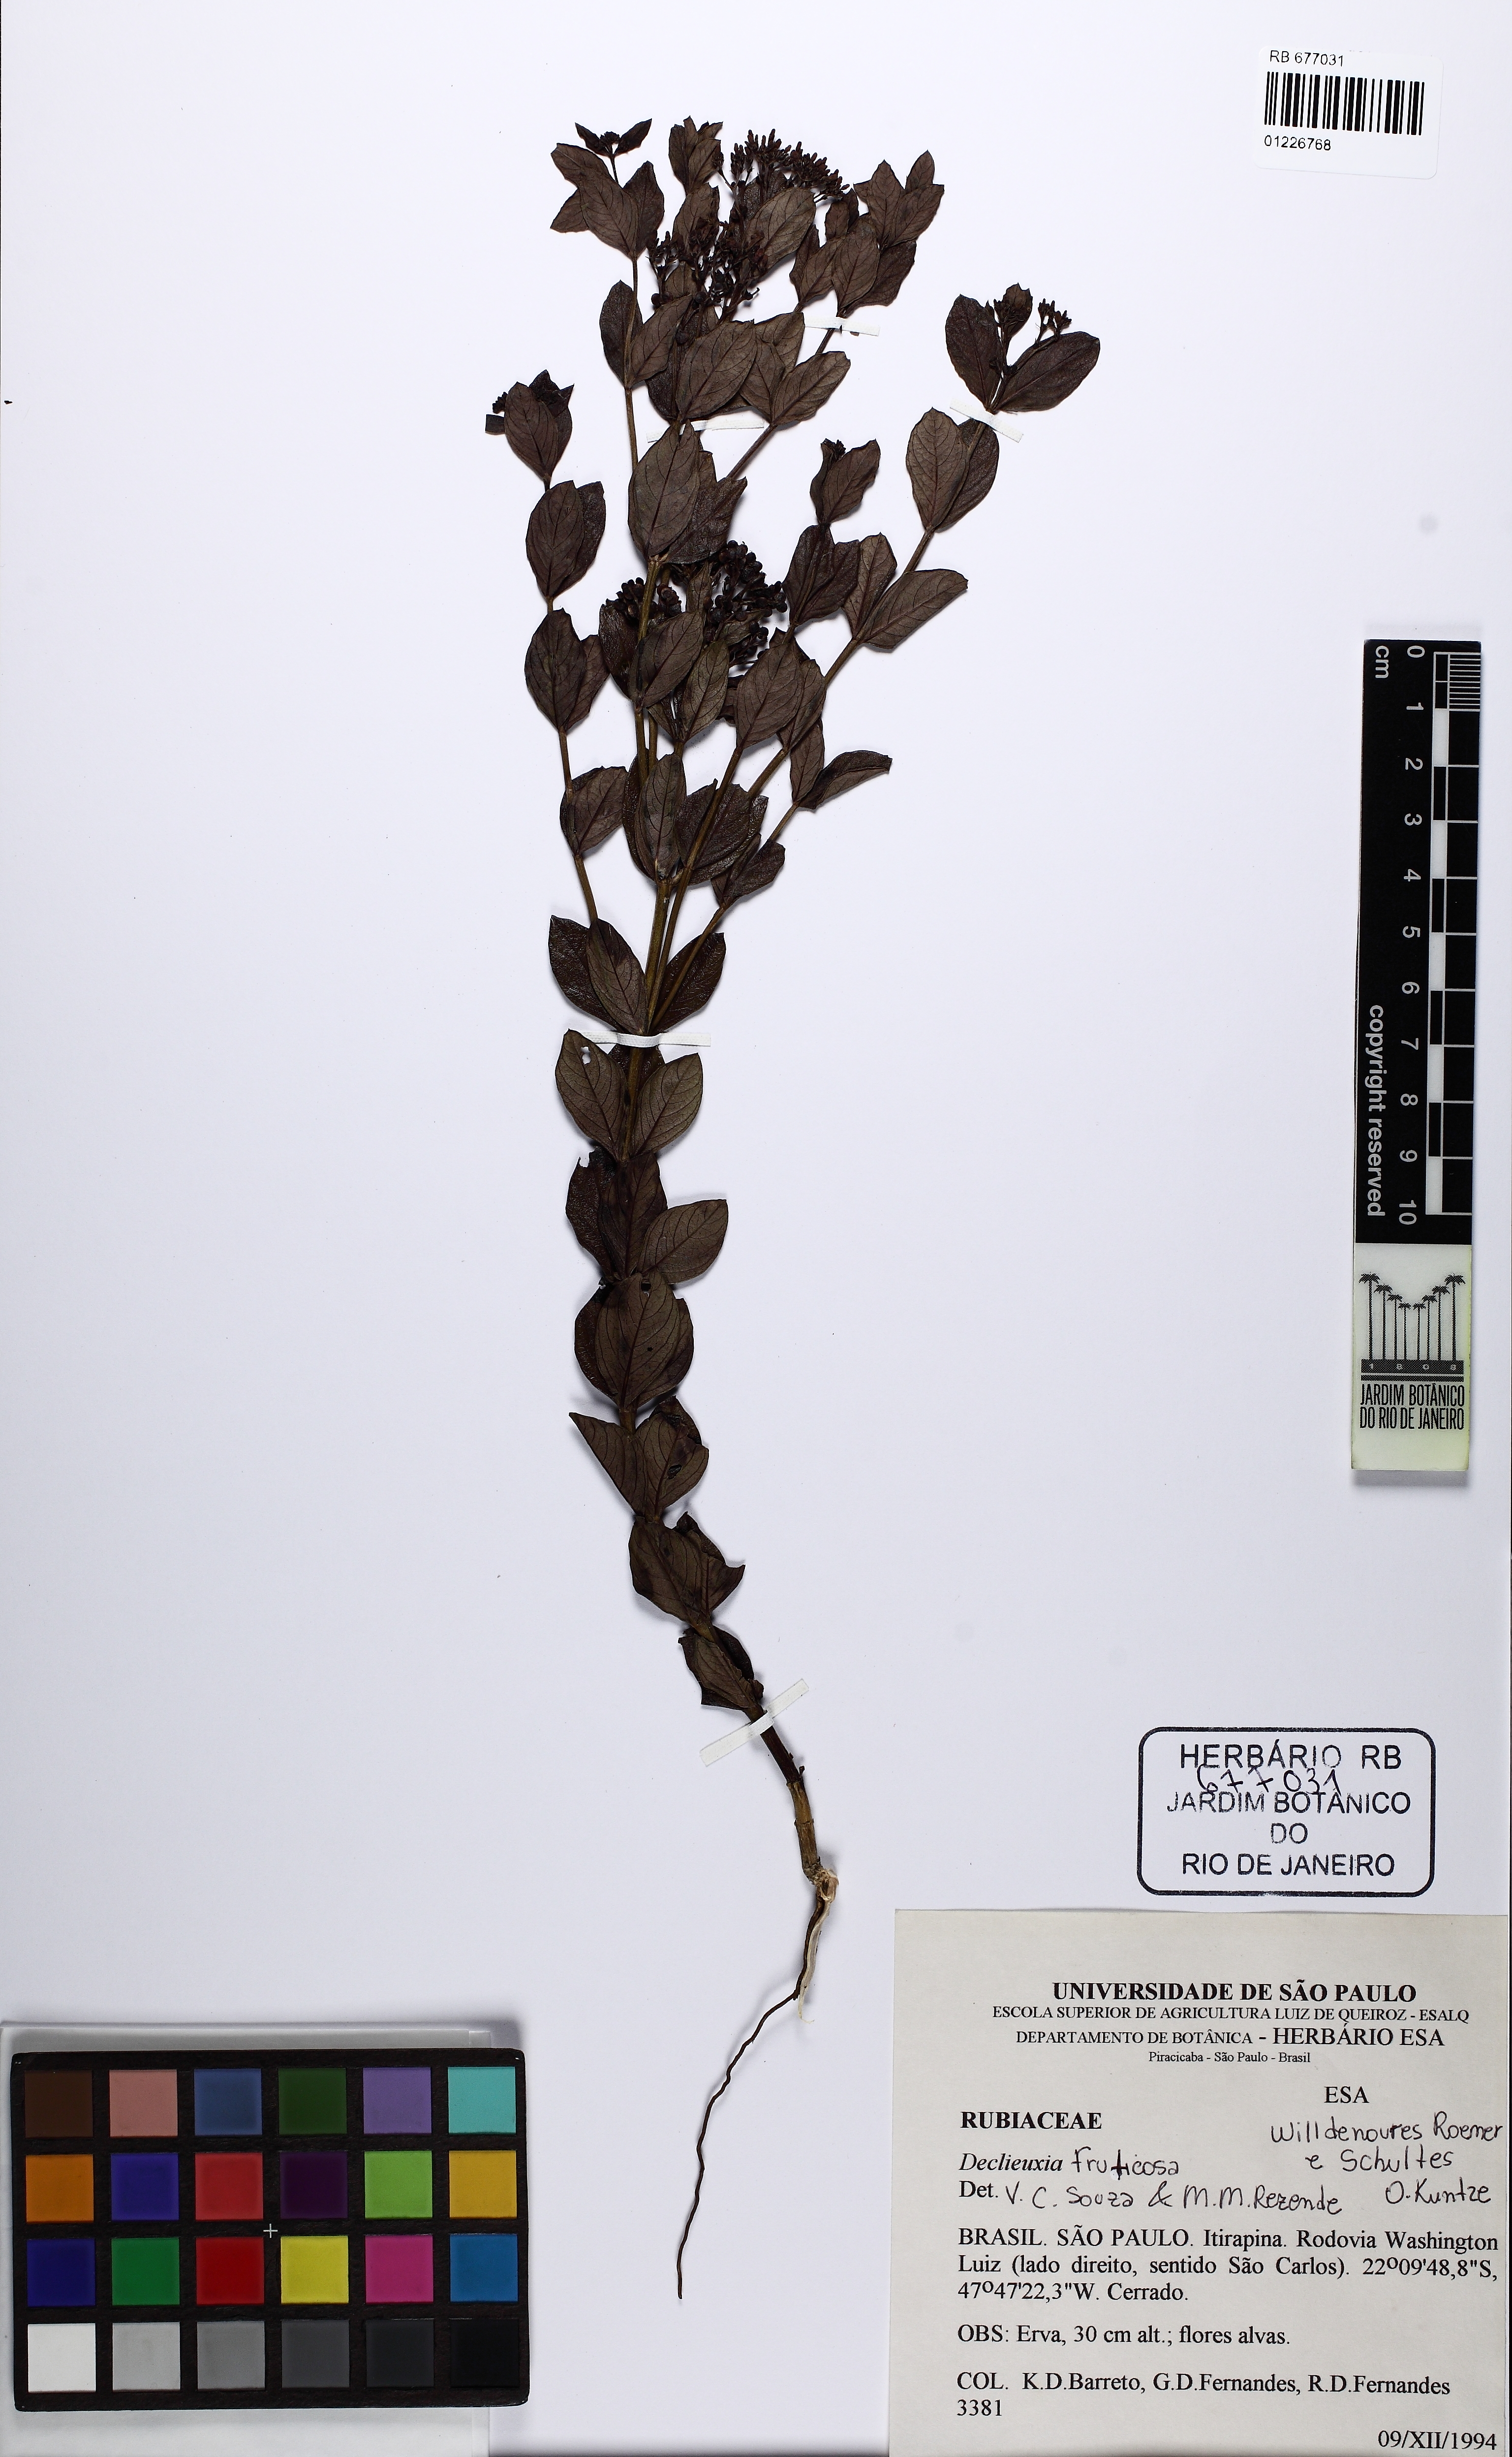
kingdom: Plantae
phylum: Tracheophyta
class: Magnoliopsida
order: Gentianales
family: Rubiaceae
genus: Declieuxia
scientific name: Declieuxia fruticosa
